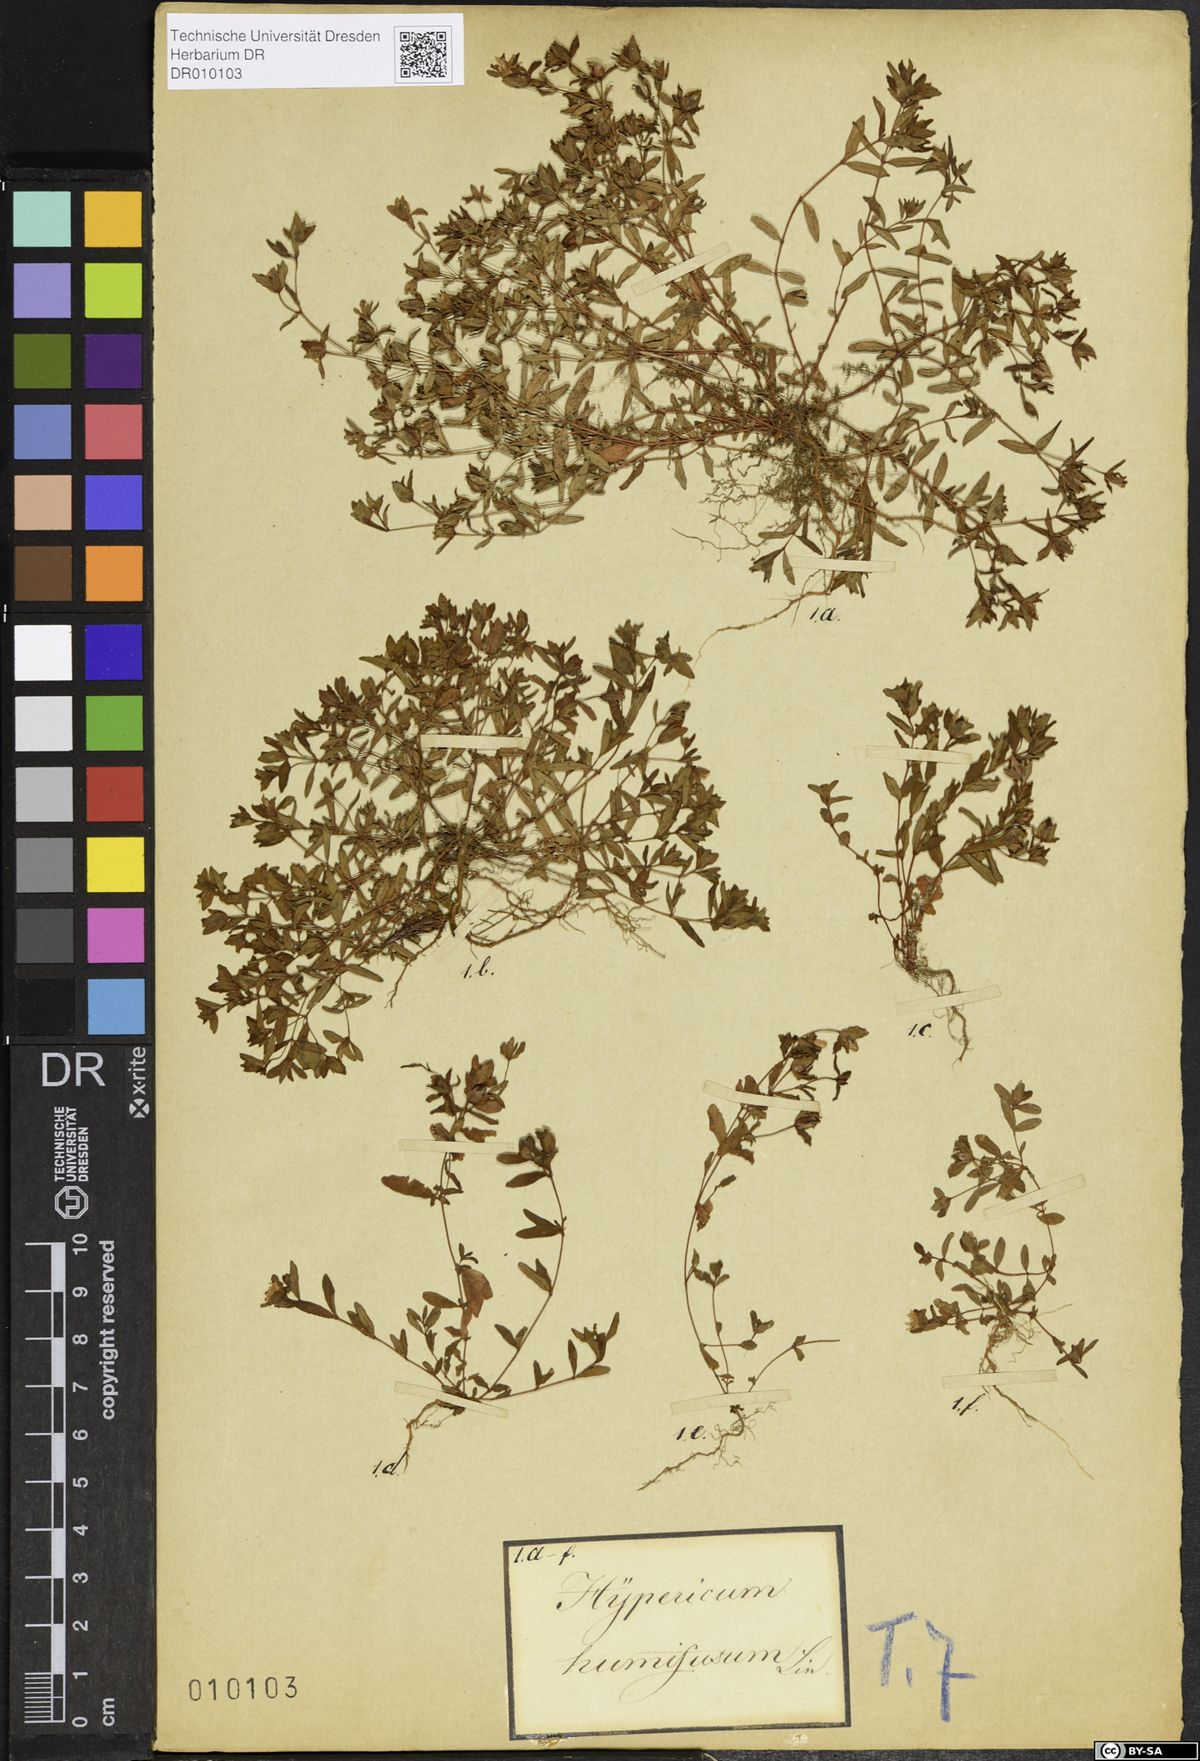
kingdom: Plantae
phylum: Tracheophyta
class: Magnoliopsida
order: Malpighiales
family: Hypericaceae
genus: Hypericum
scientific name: Hypericum humifusum
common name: Trailing st. john's-wort
